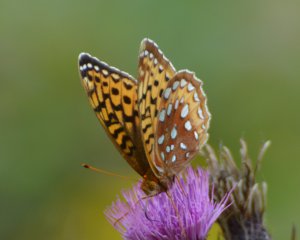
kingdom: Animalia
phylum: Arthropoda
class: Insecta
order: Lepidoptera
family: Nymphalidae
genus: Speyeria
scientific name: Speyeria cybele
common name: Great Spangled Fritillary
